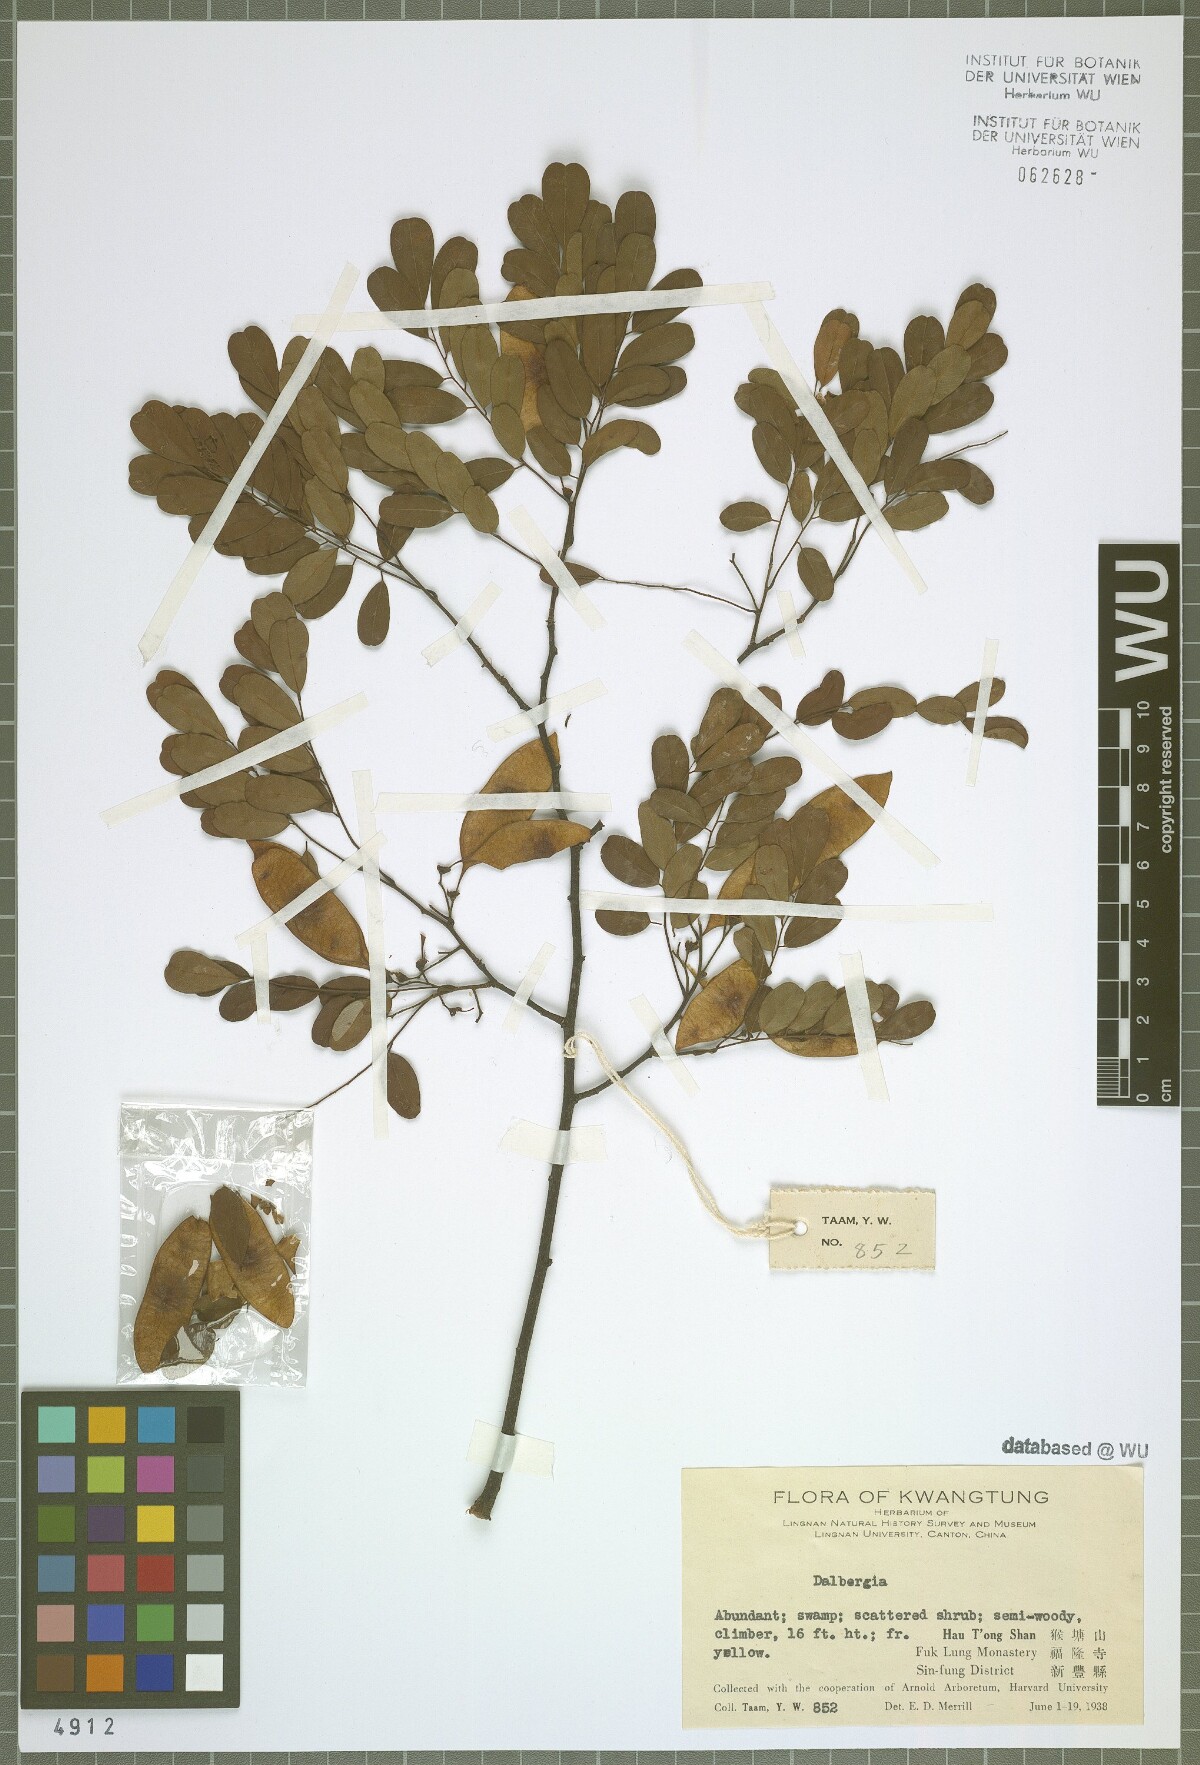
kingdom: Plantae
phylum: Tracheophyta
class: Magnoliopsida
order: Fabales
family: Fabaceae
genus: Dalbergia
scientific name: Dalbergia
